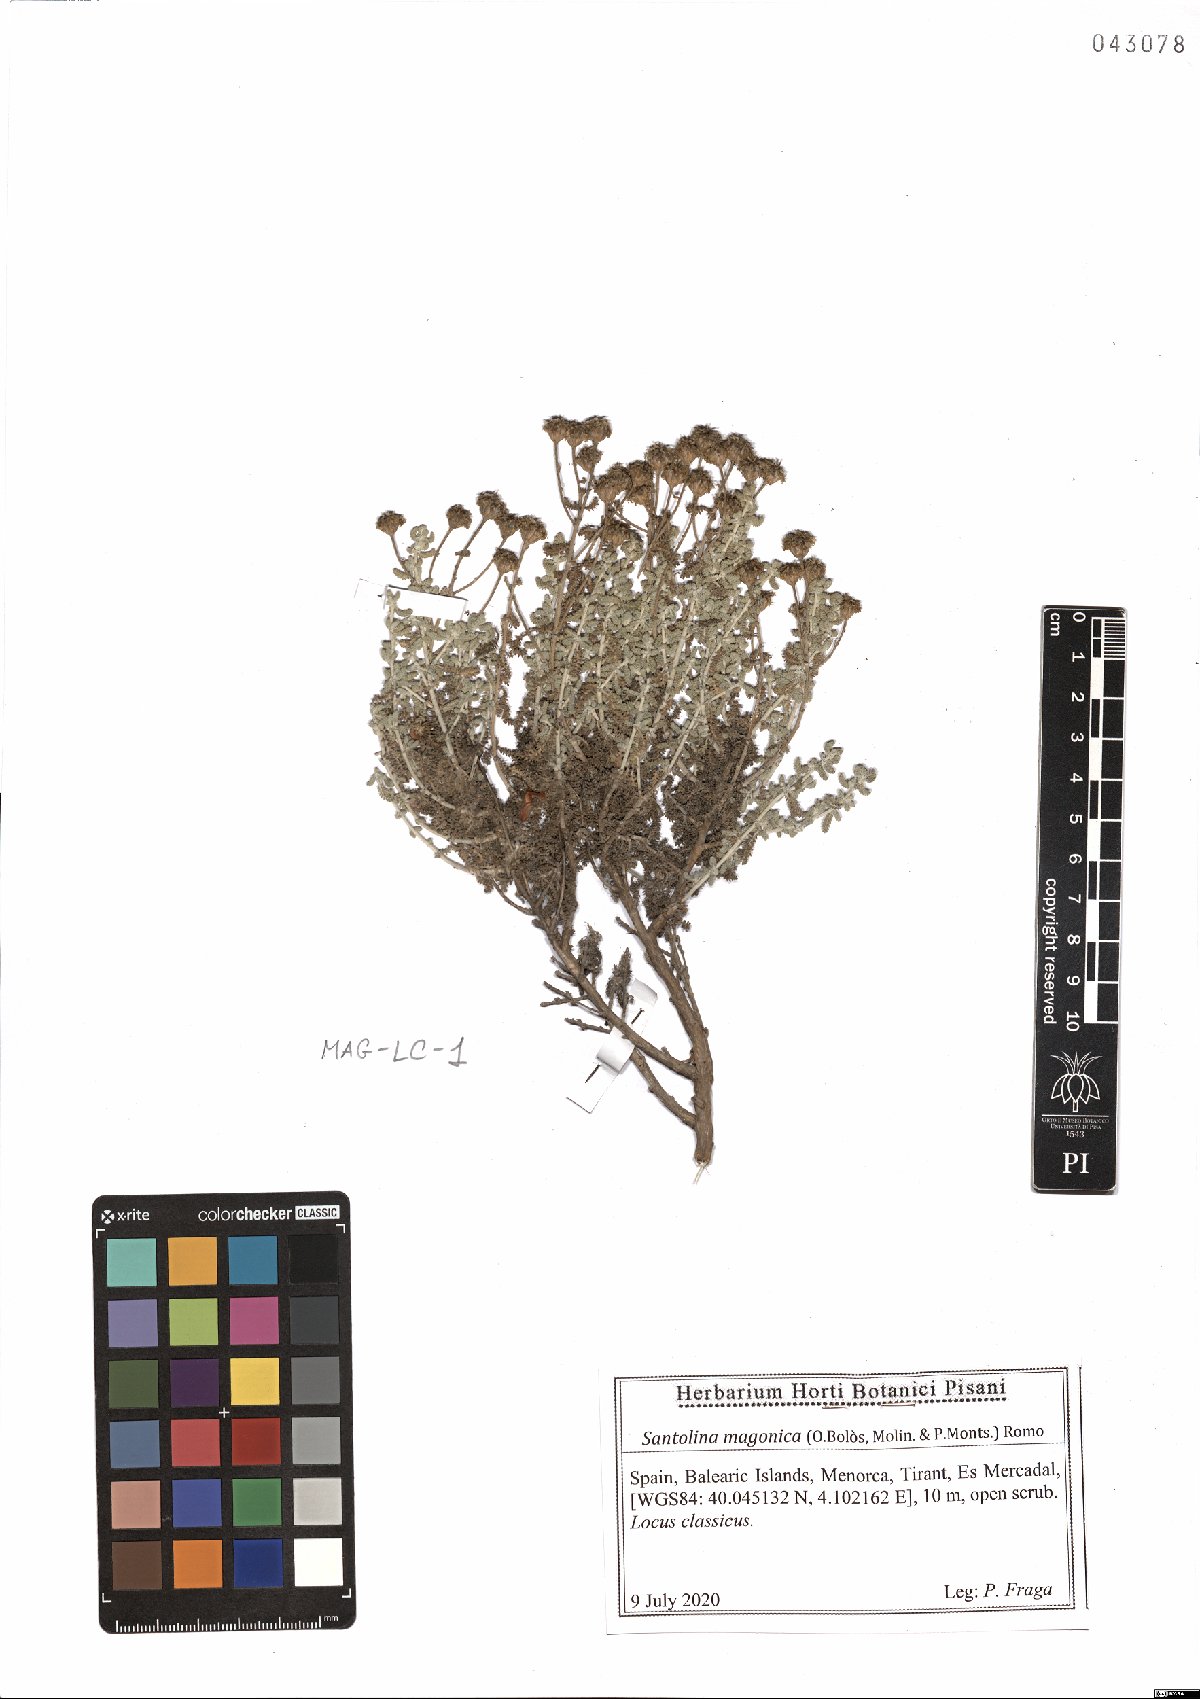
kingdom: Plantae
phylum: Tracheophyta
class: Magnoliopsida
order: Asterales
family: Asteraceae
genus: Santolina
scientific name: Santolina magonica
